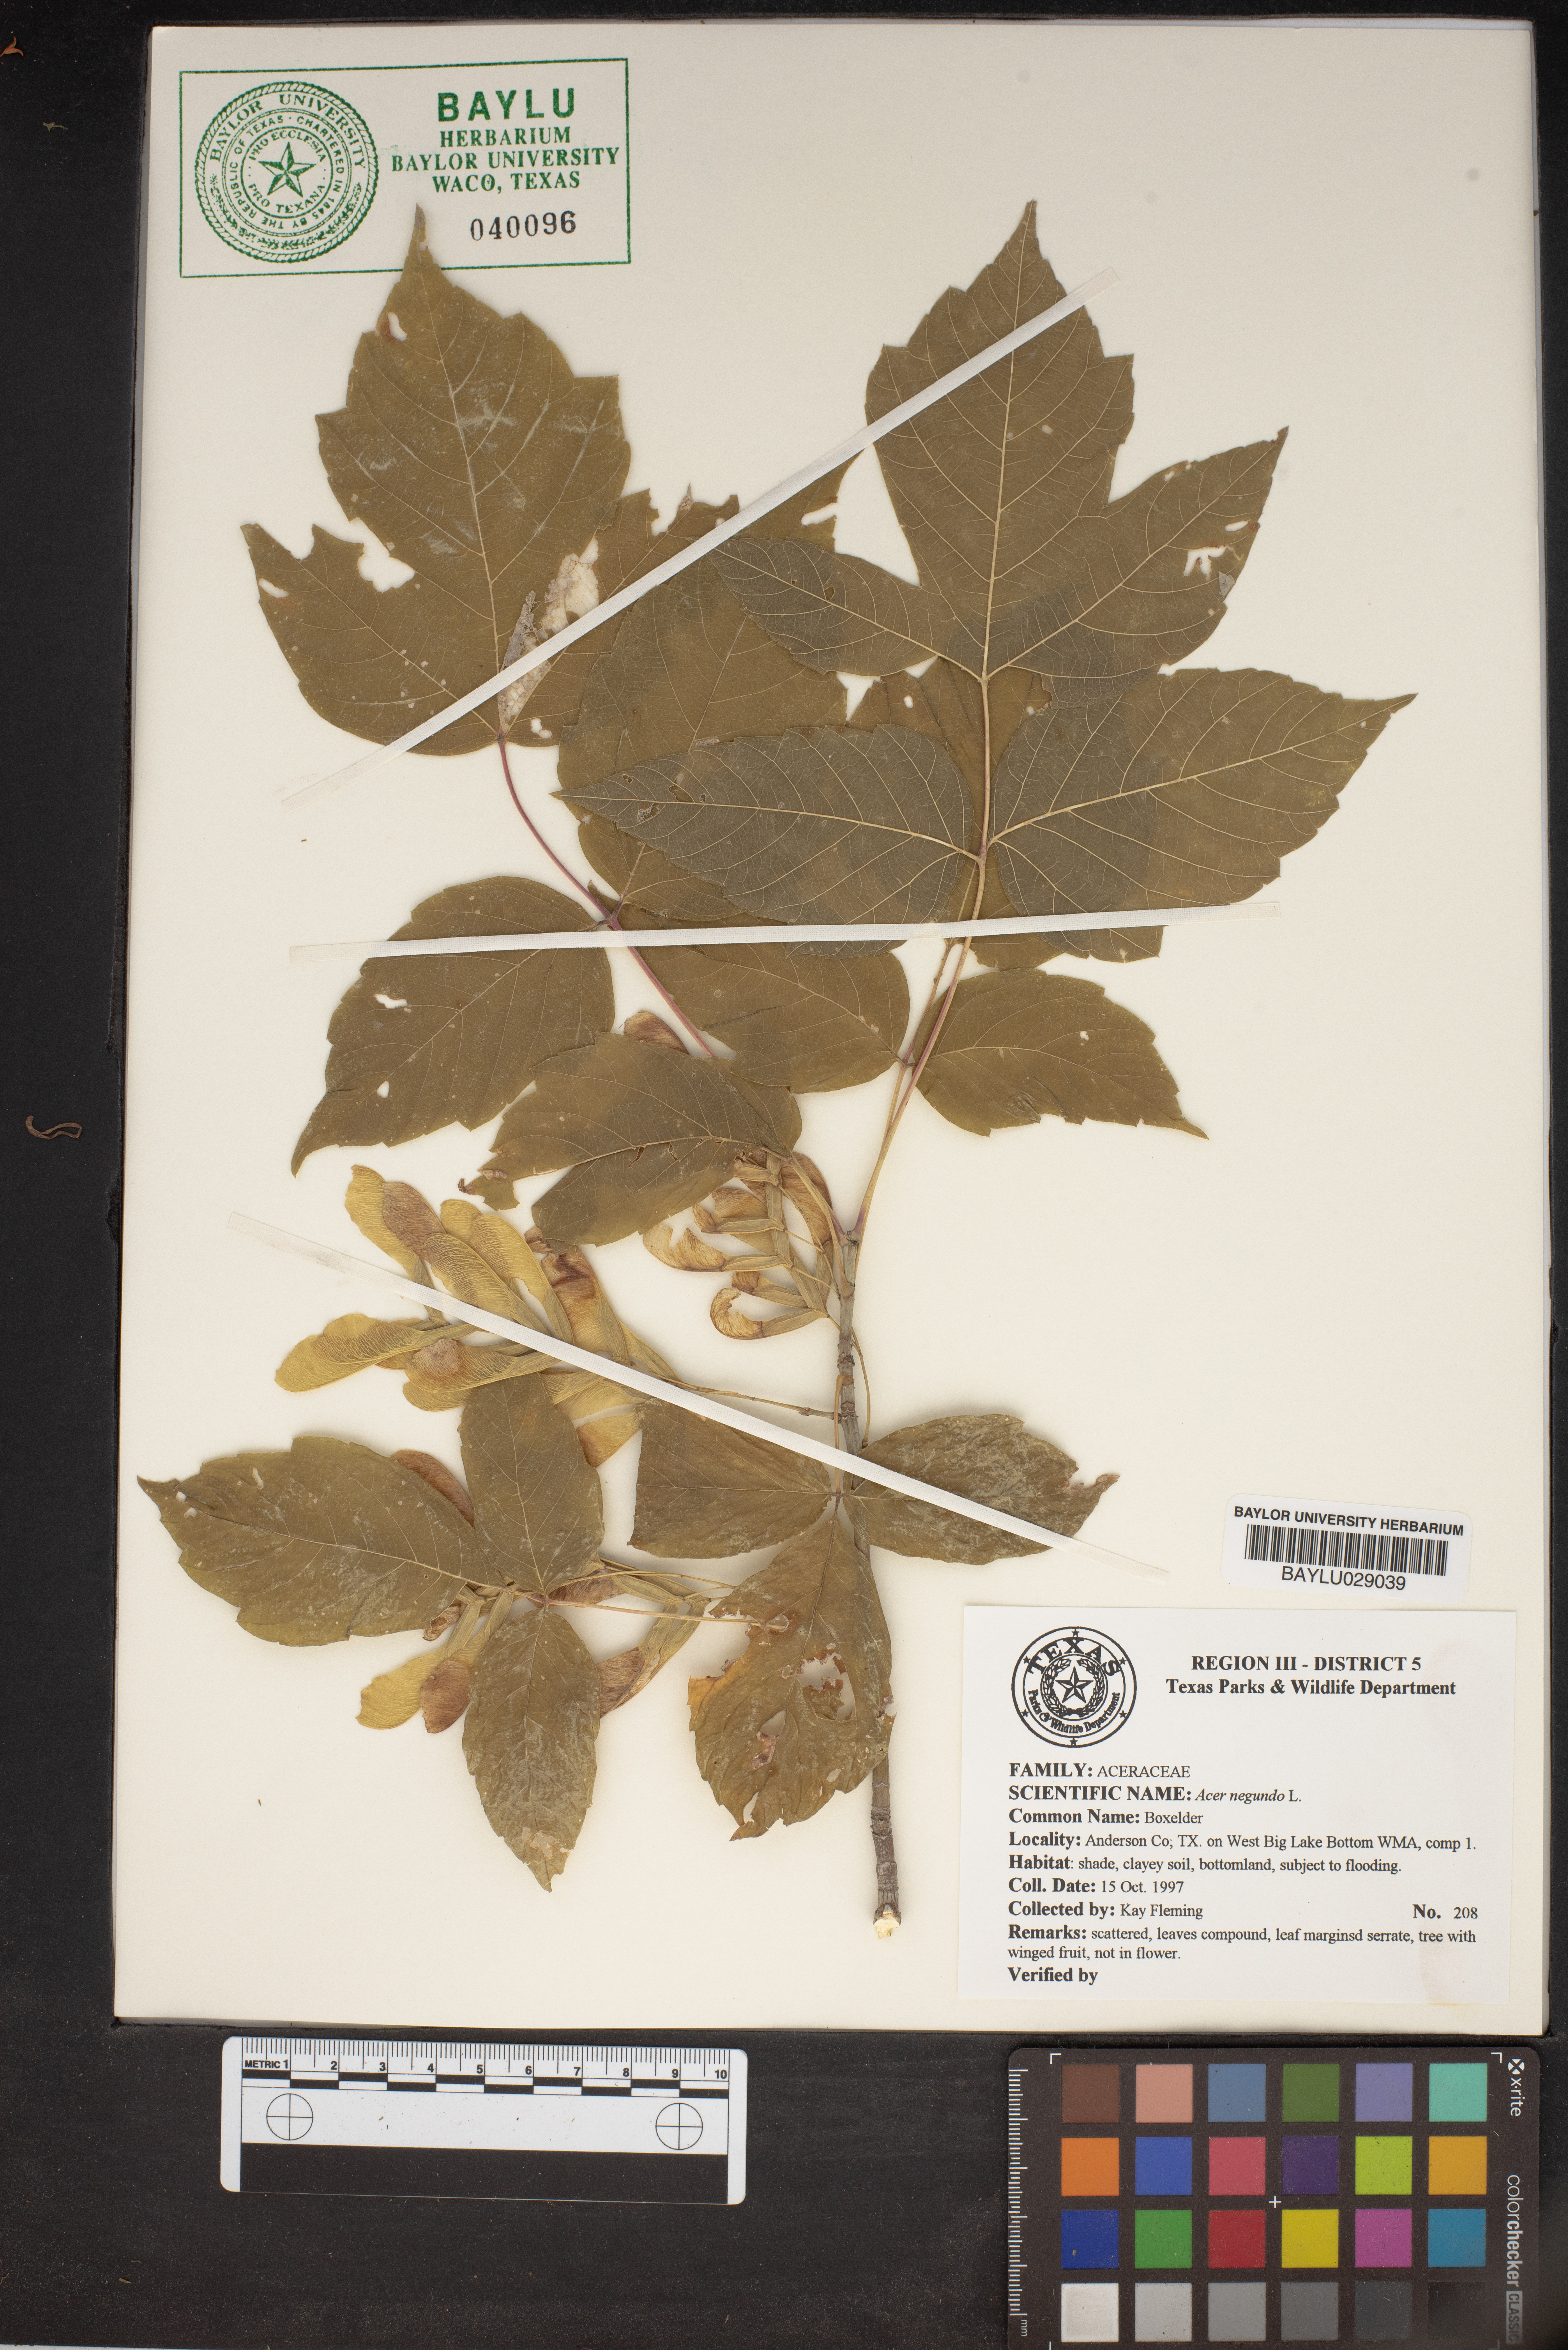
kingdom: Plantae
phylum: Tracheophyta
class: Magnoliopsida
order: Sapindales
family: Sapindaceae
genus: Acer
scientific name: Acer negundo
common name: Ashleaf maple
